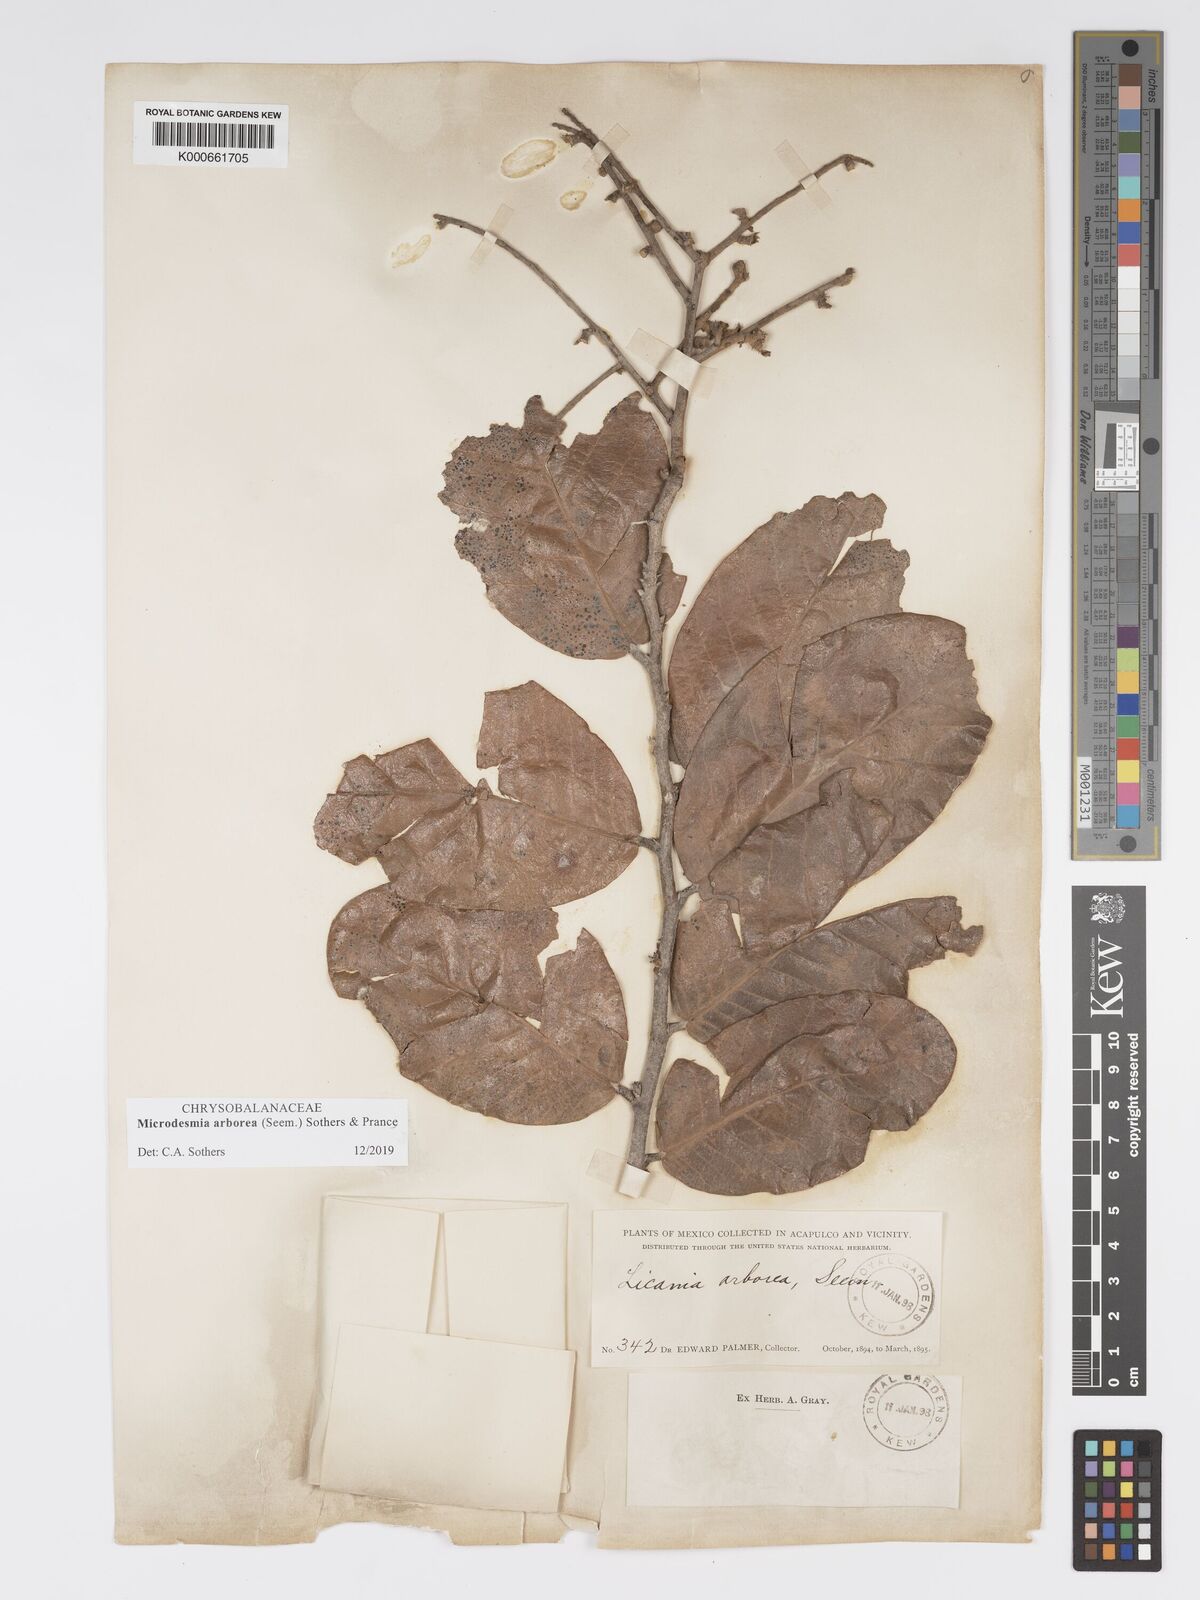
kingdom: Plantae
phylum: Tracheophyta
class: Magnoliopsida
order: Malpighiales
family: Chrysobalanaceae
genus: Licania
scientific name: Licania
